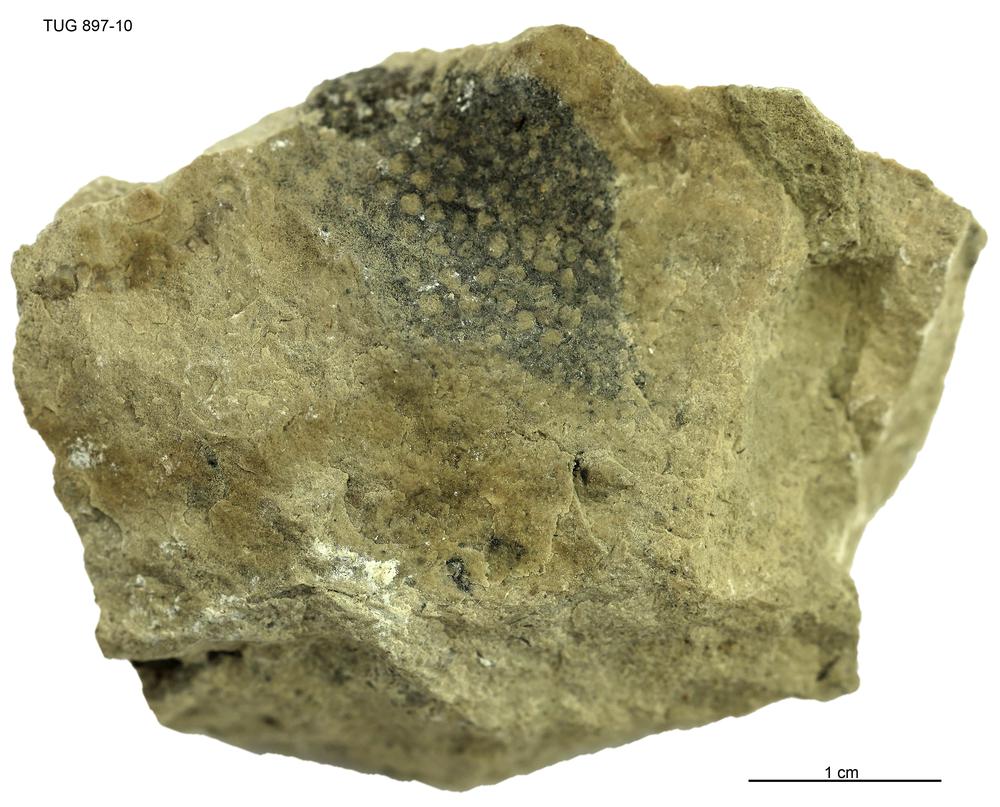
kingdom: Animalia
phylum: Porifera
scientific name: Porifera
